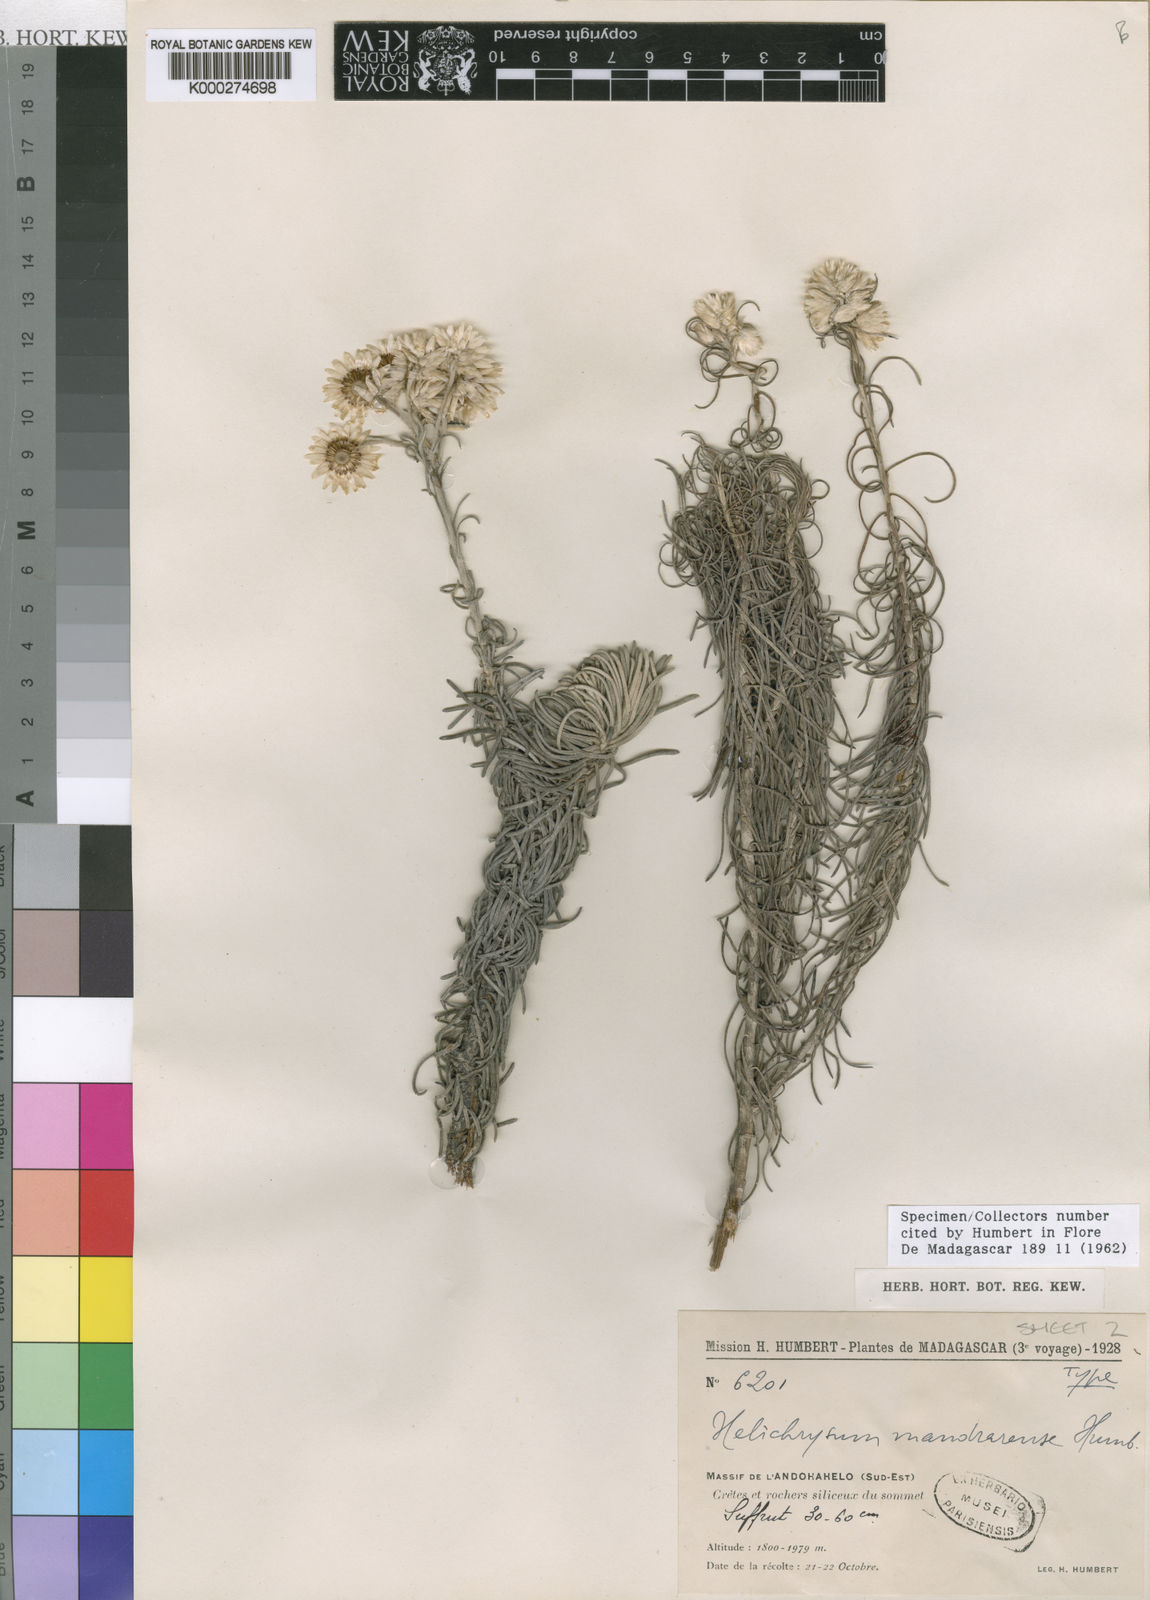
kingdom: Plantae
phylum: Tracheophyta
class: Magnoliopsida
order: Asterales
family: Asteraceae
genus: Helichrysum
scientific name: Helichrysum mandrarense
